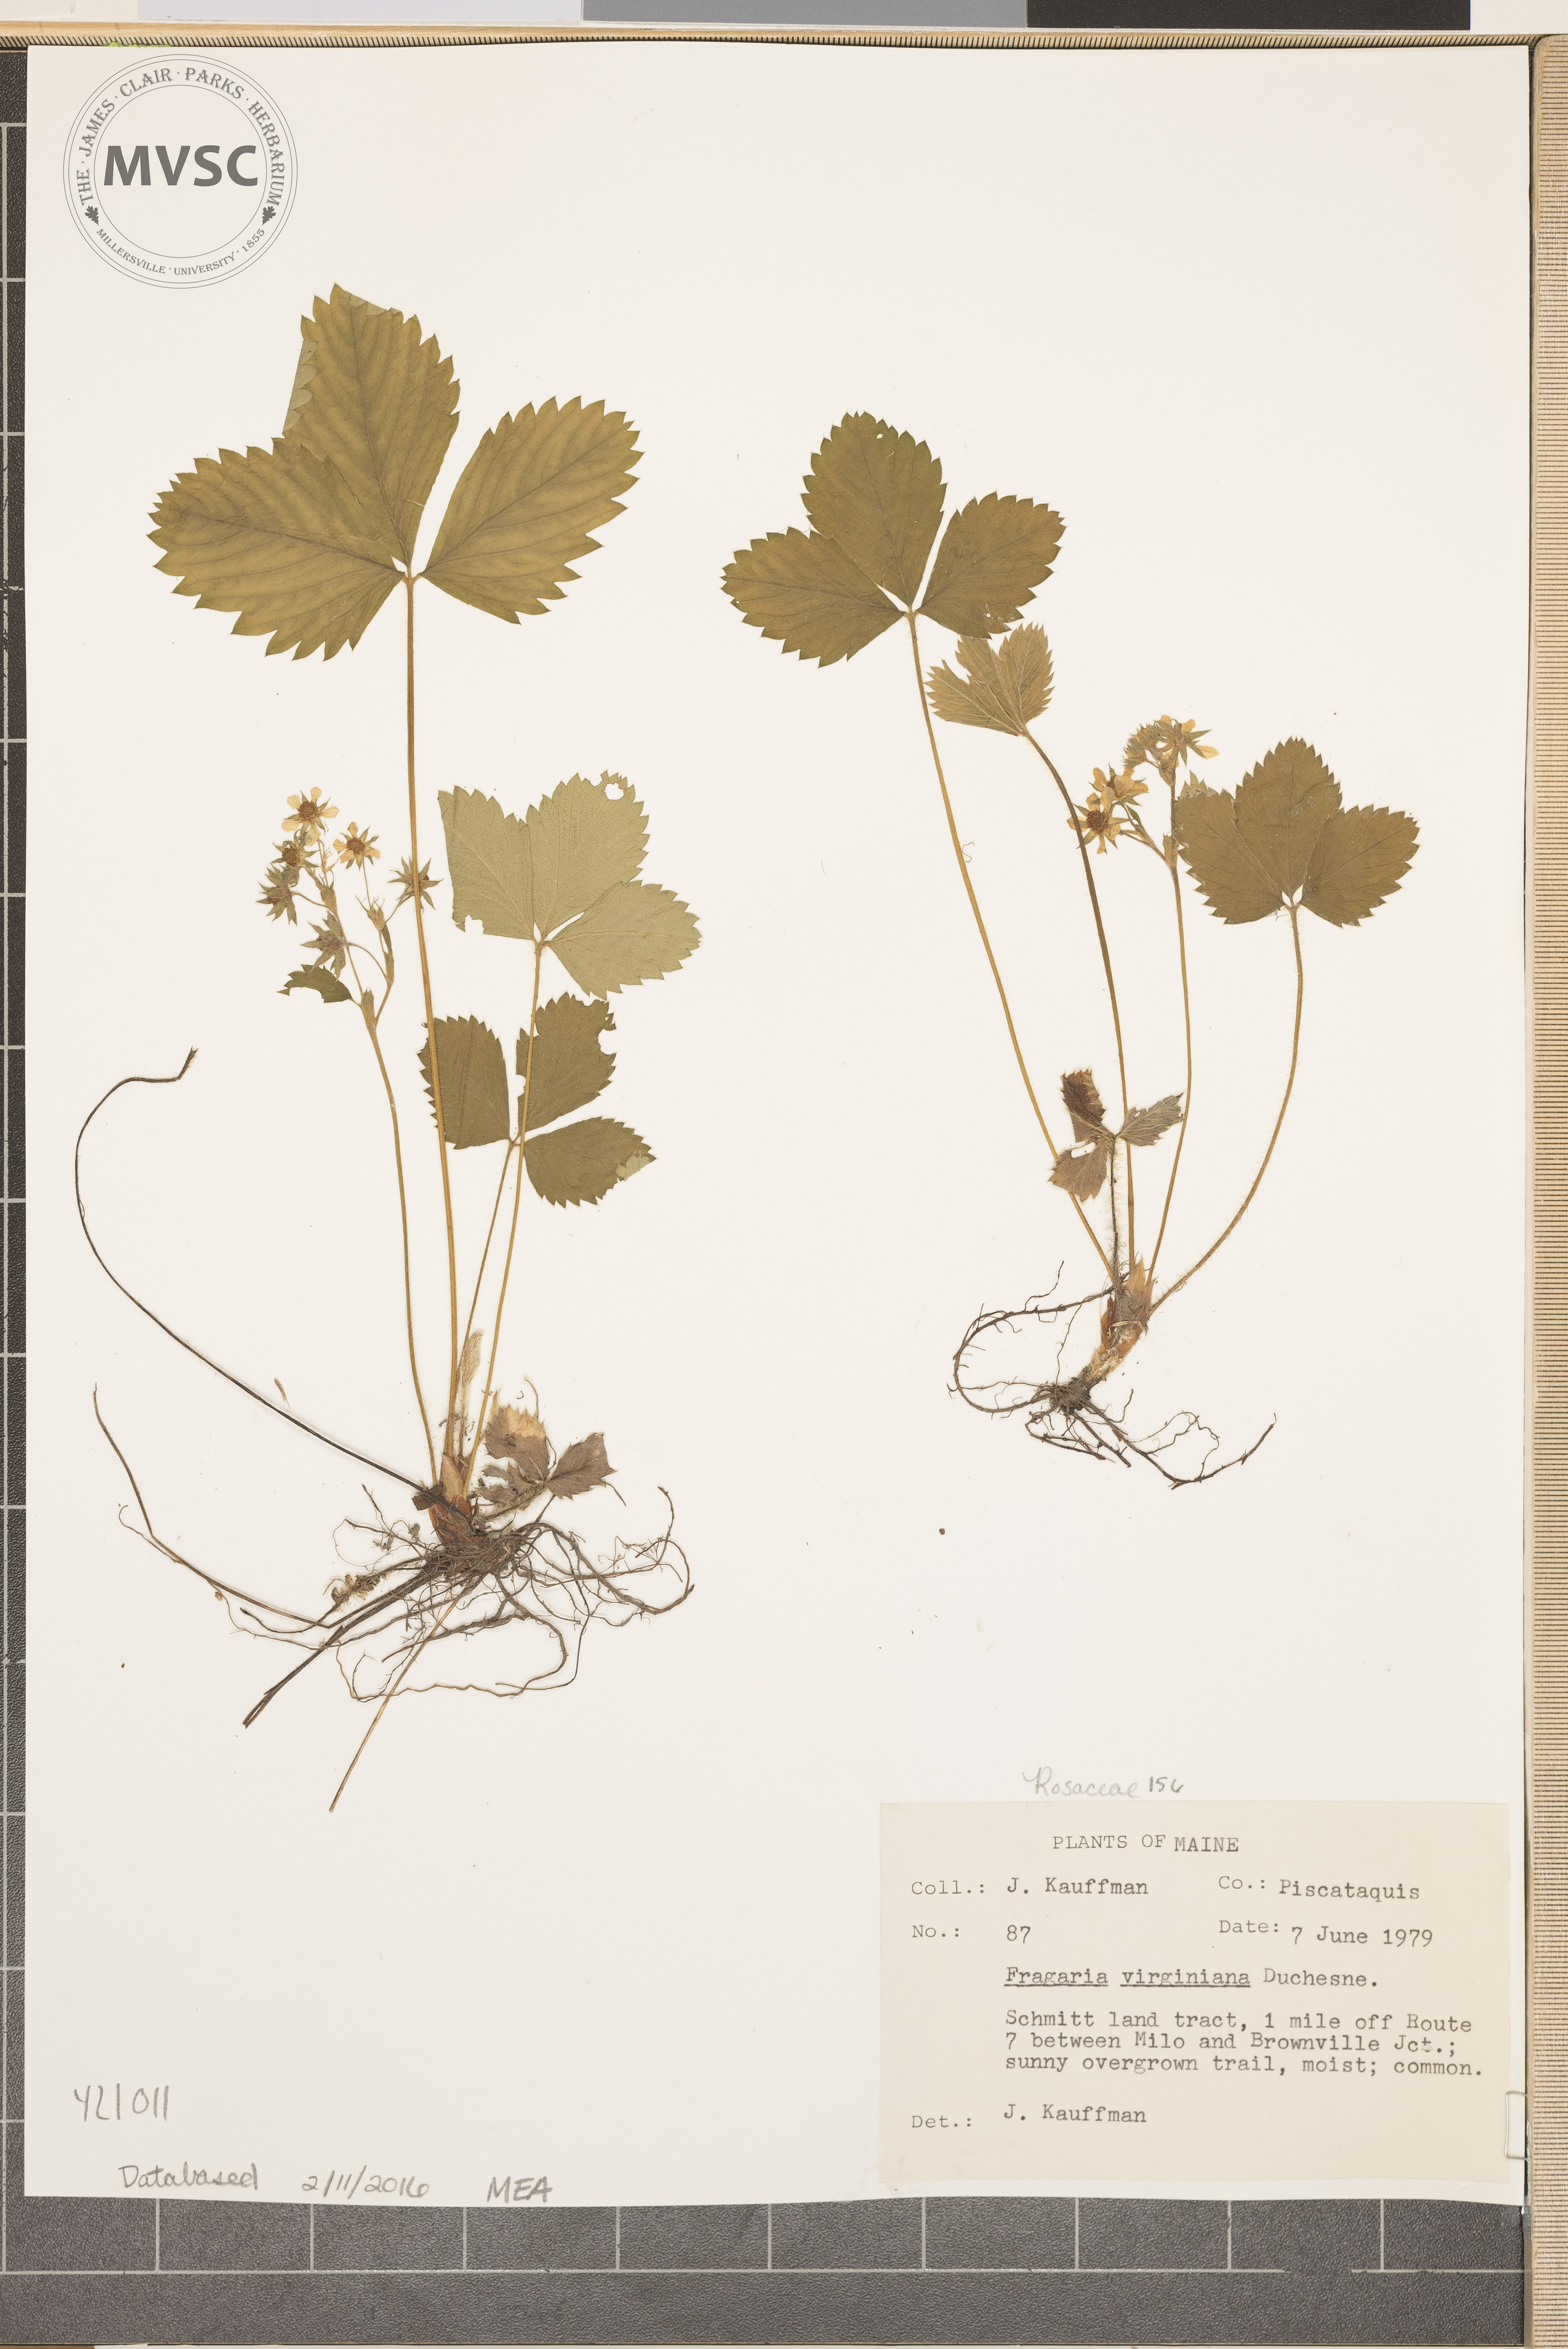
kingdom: Plantae
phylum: Tracheophyta
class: Magnoliopsida
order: Rosales
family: Rosaceae
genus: Fragaria
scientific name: Fragaria virginiana
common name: Virginia Strawberry
